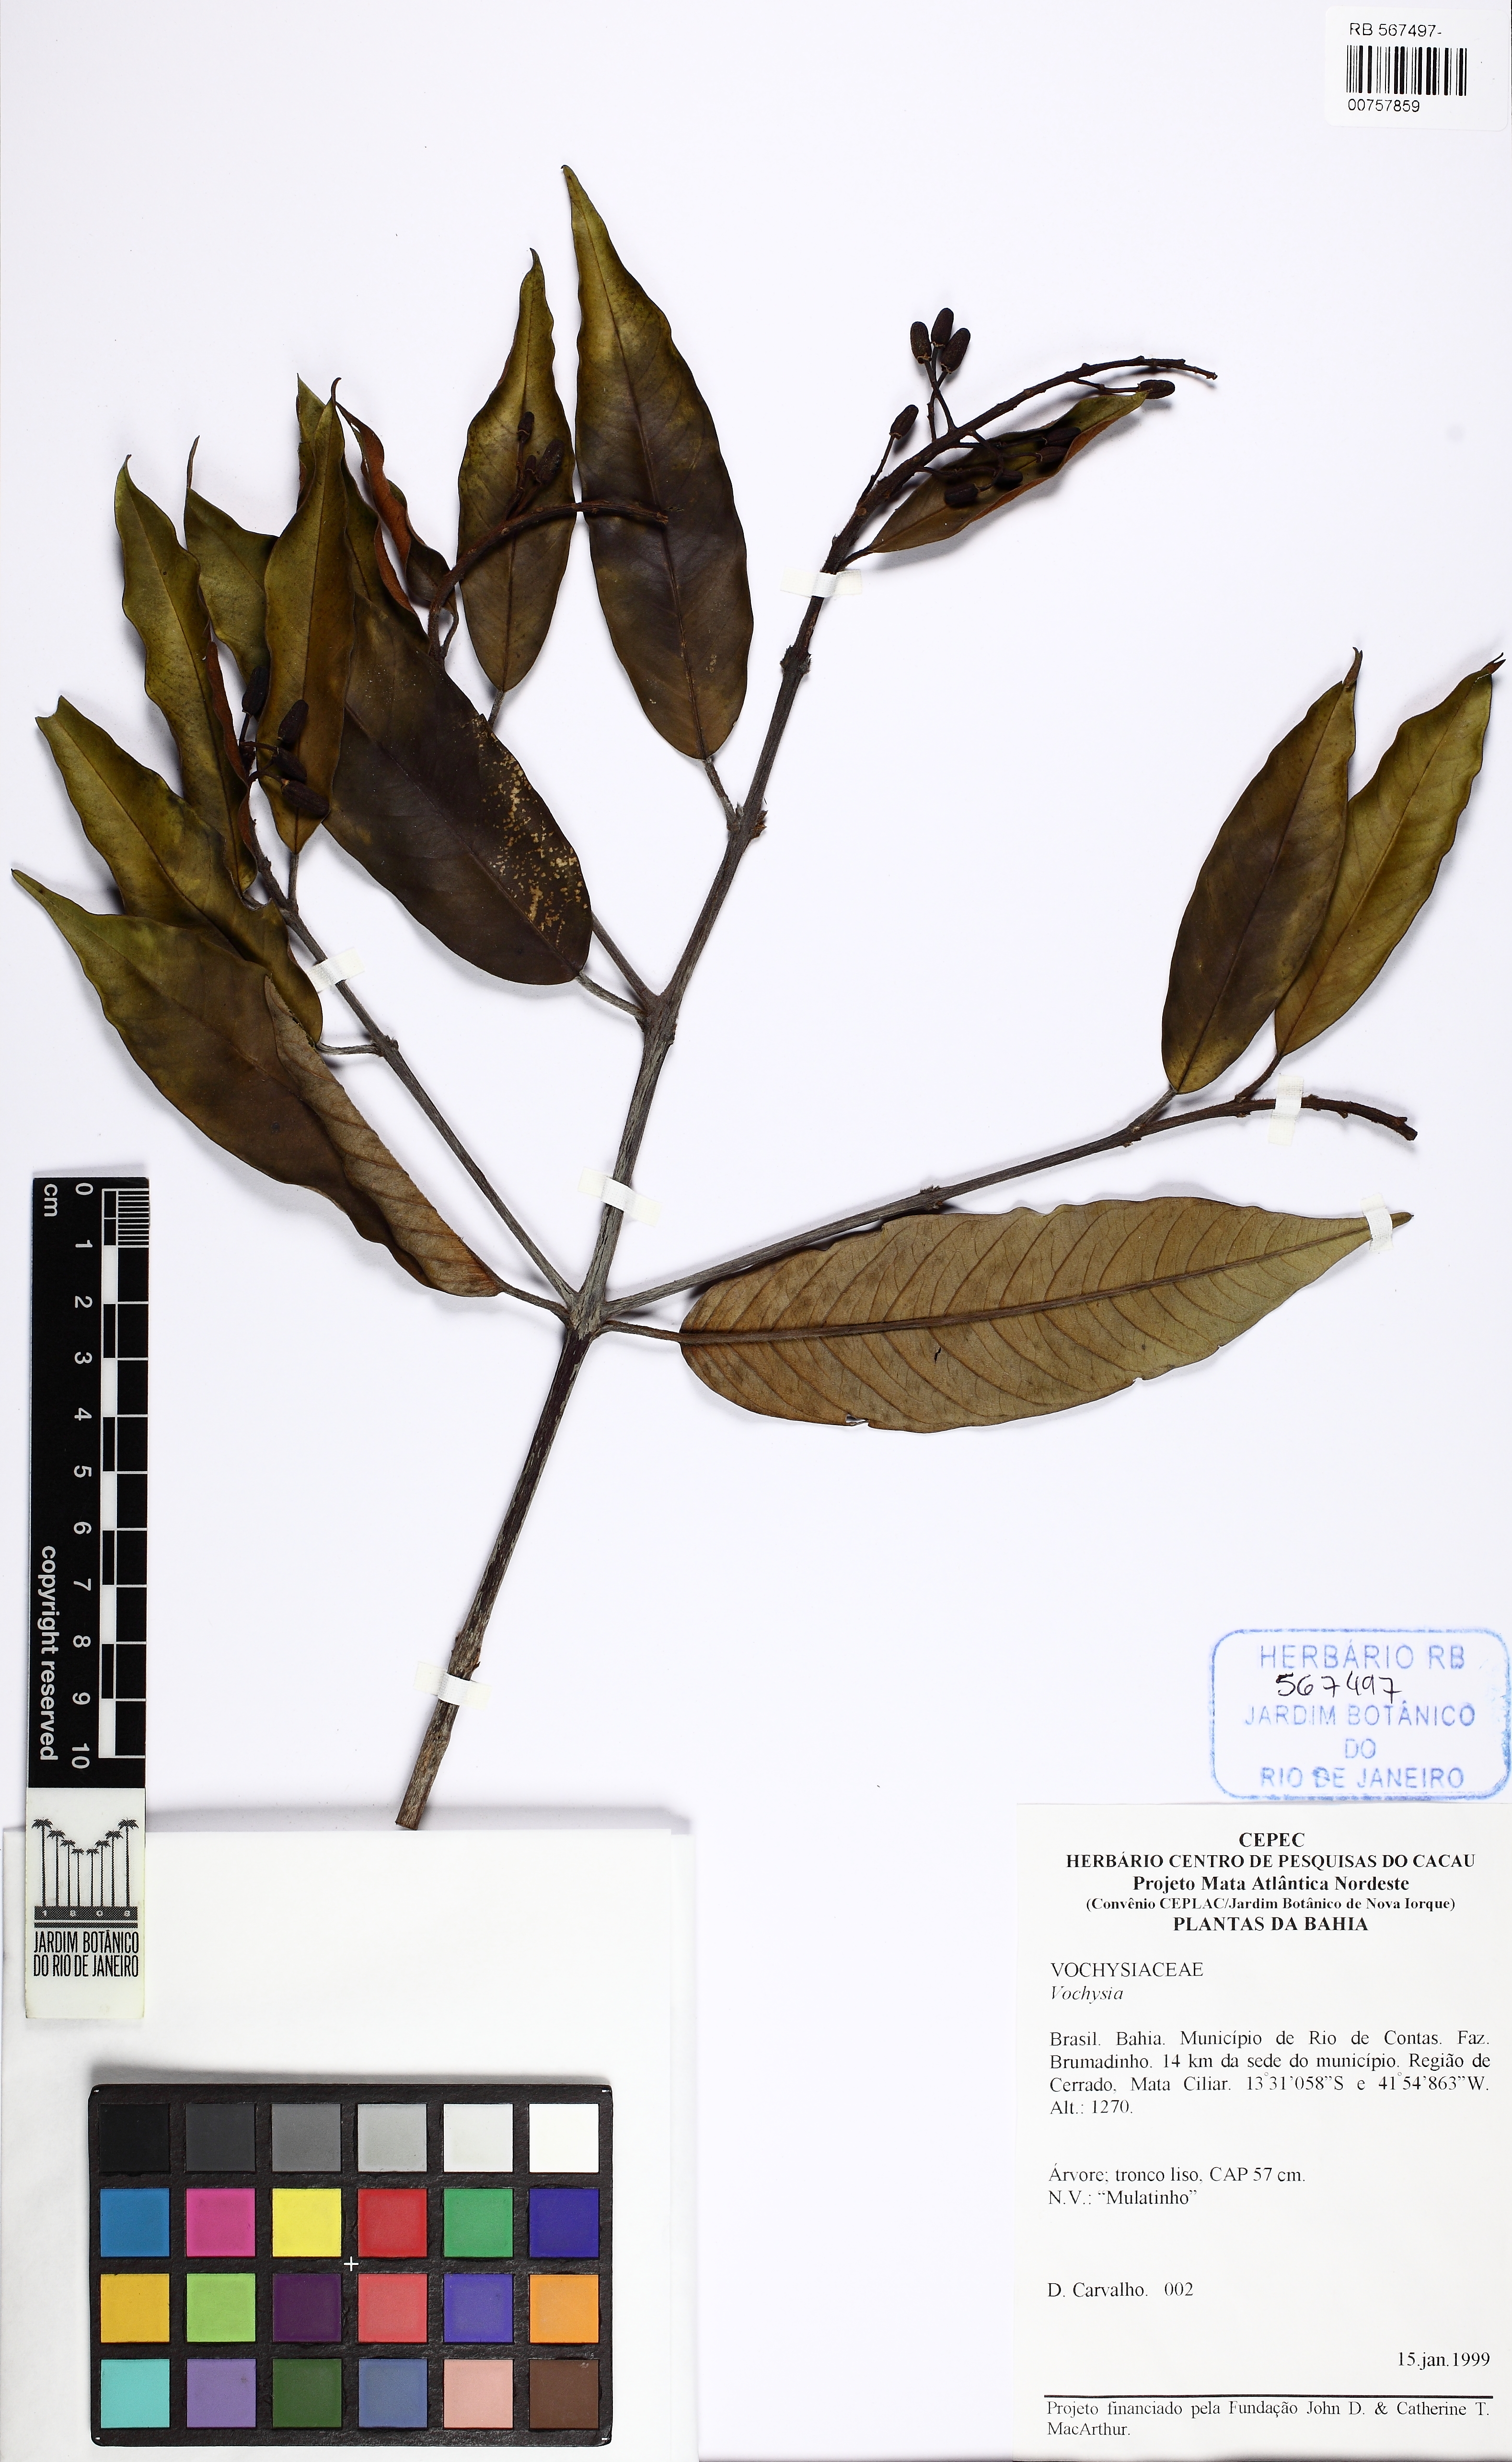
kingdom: Plantae
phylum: Tracheophyta
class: Magnoliopsida
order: Myrtales
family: Vochysiaceae
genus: Vochysia
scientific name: Vochysia
